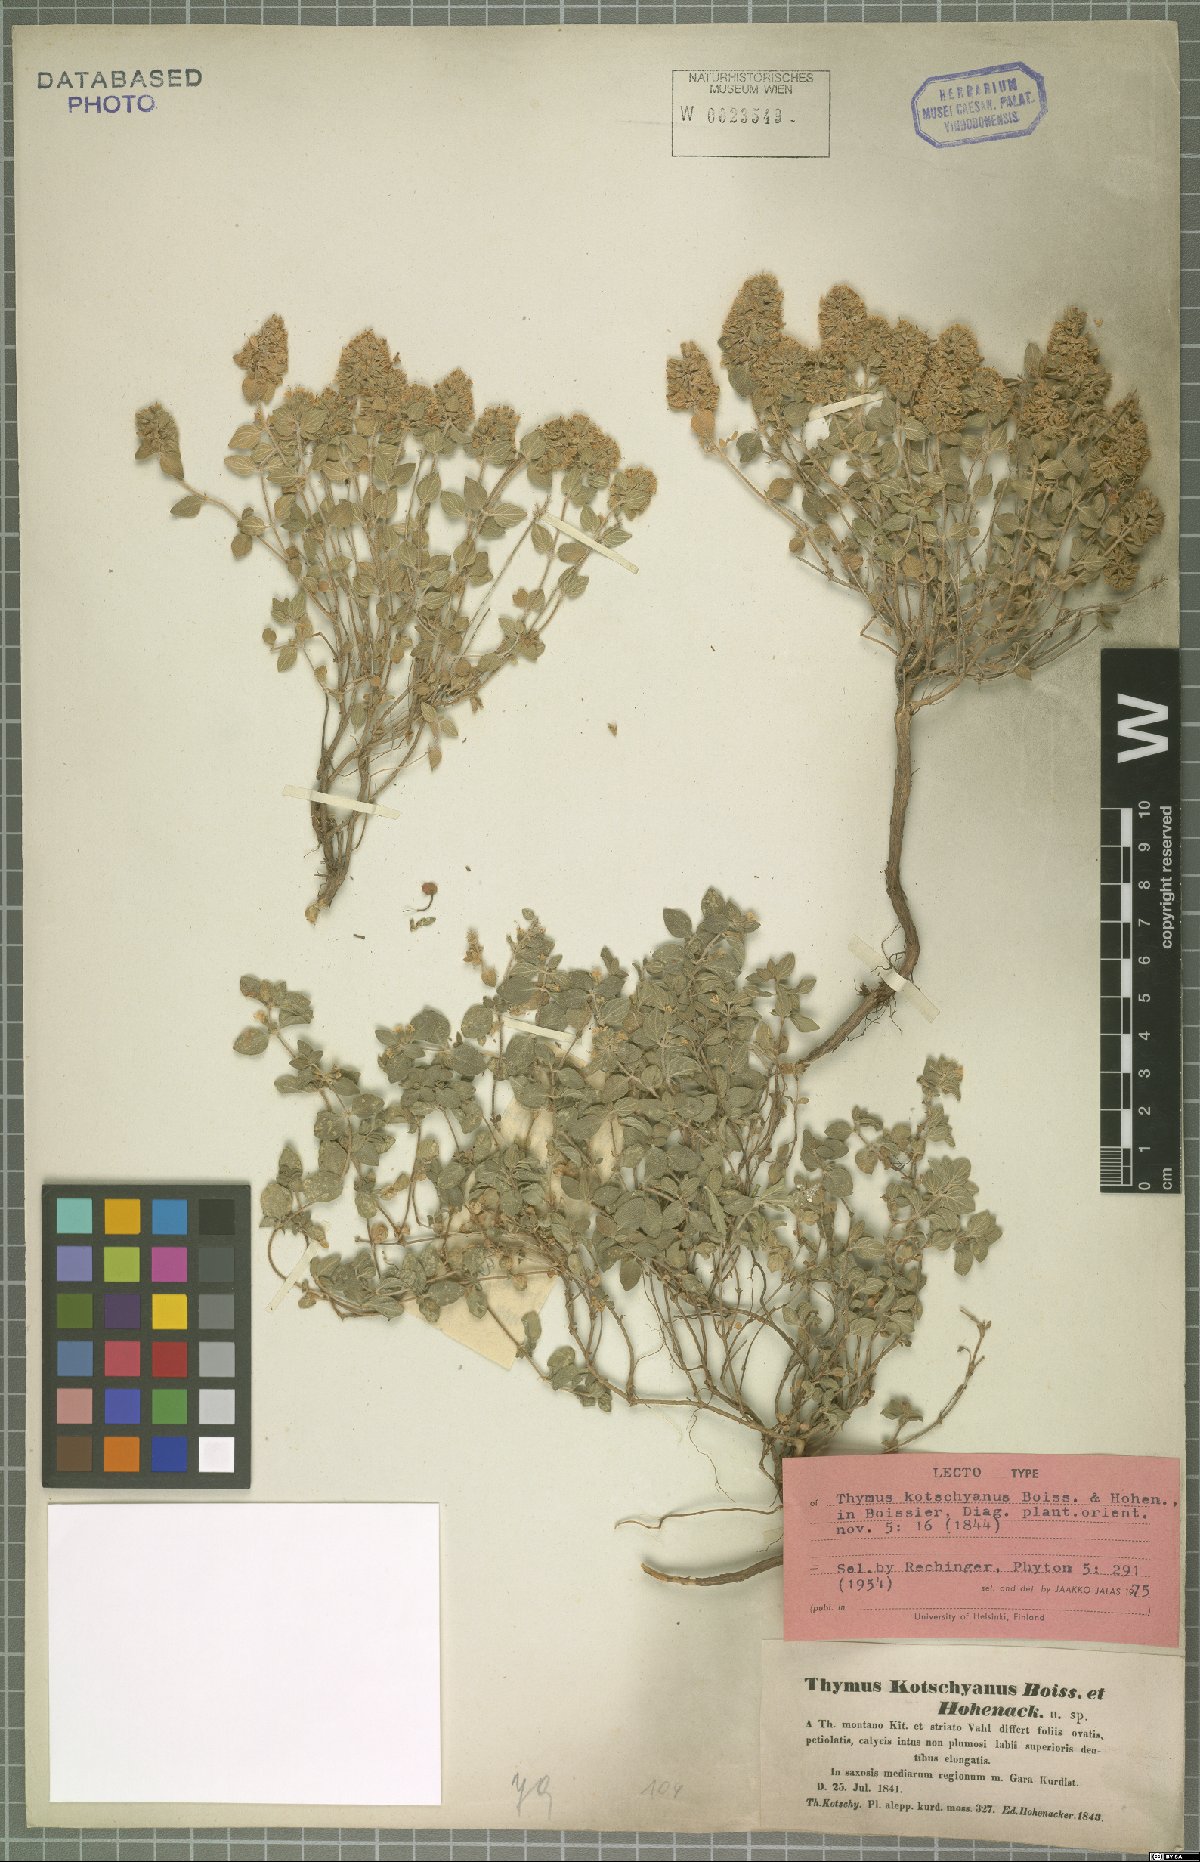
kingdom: Plantae
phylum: Tracheophyta
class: Magnoliopsida
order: Lamiales
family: Lamiaceae
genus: Thymus
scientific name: Thymus kotschyanus
